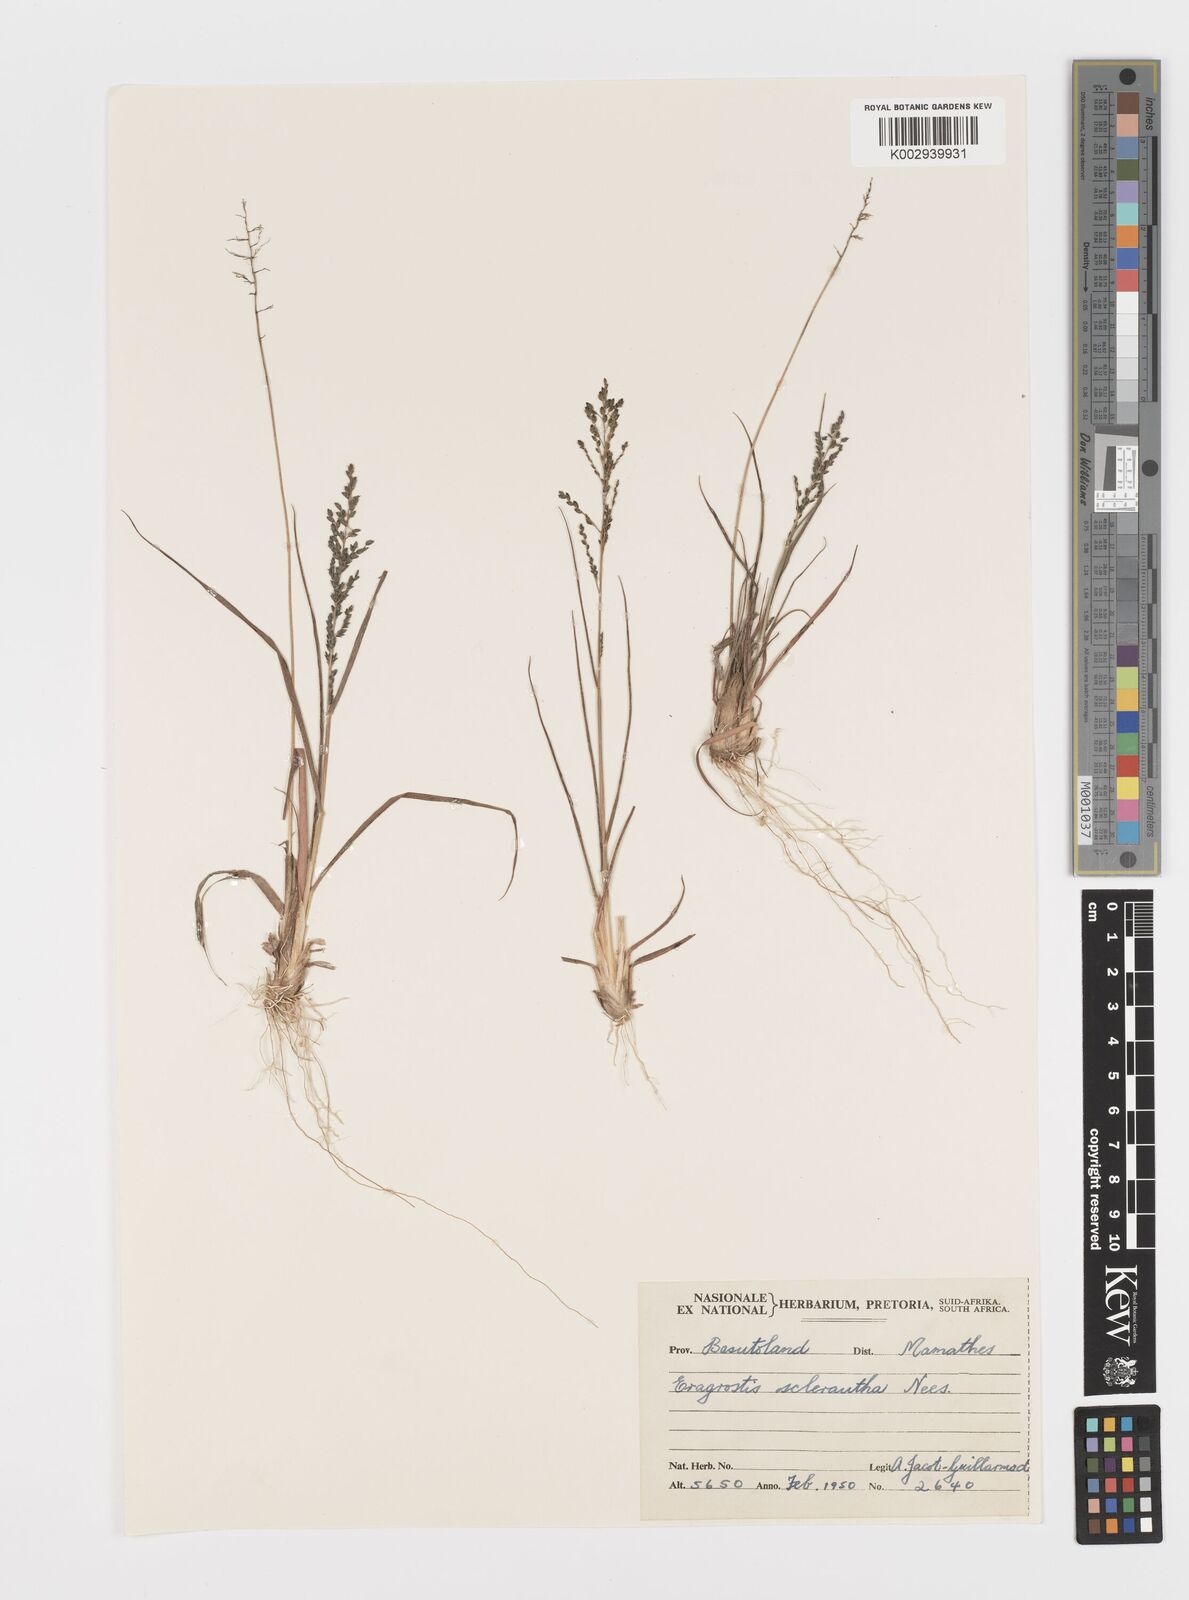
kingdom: Plantae
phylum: Tracheophyta
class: Liliopsida
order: Poales
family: Poaceae
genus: Eragrostis
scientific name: Eragrostis sclerantha
